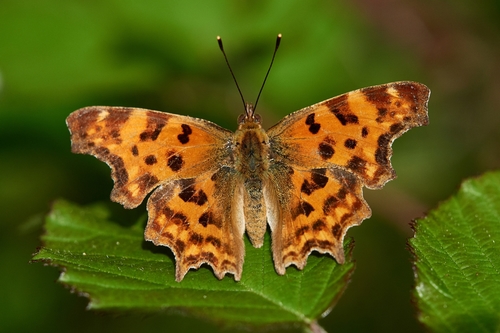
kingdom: Animalia
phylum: Arthropoda
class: Insecta
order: Lepidoptera
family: Nymphalidae
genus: Polygonia
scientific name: Polygonia c-album
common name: Comma
